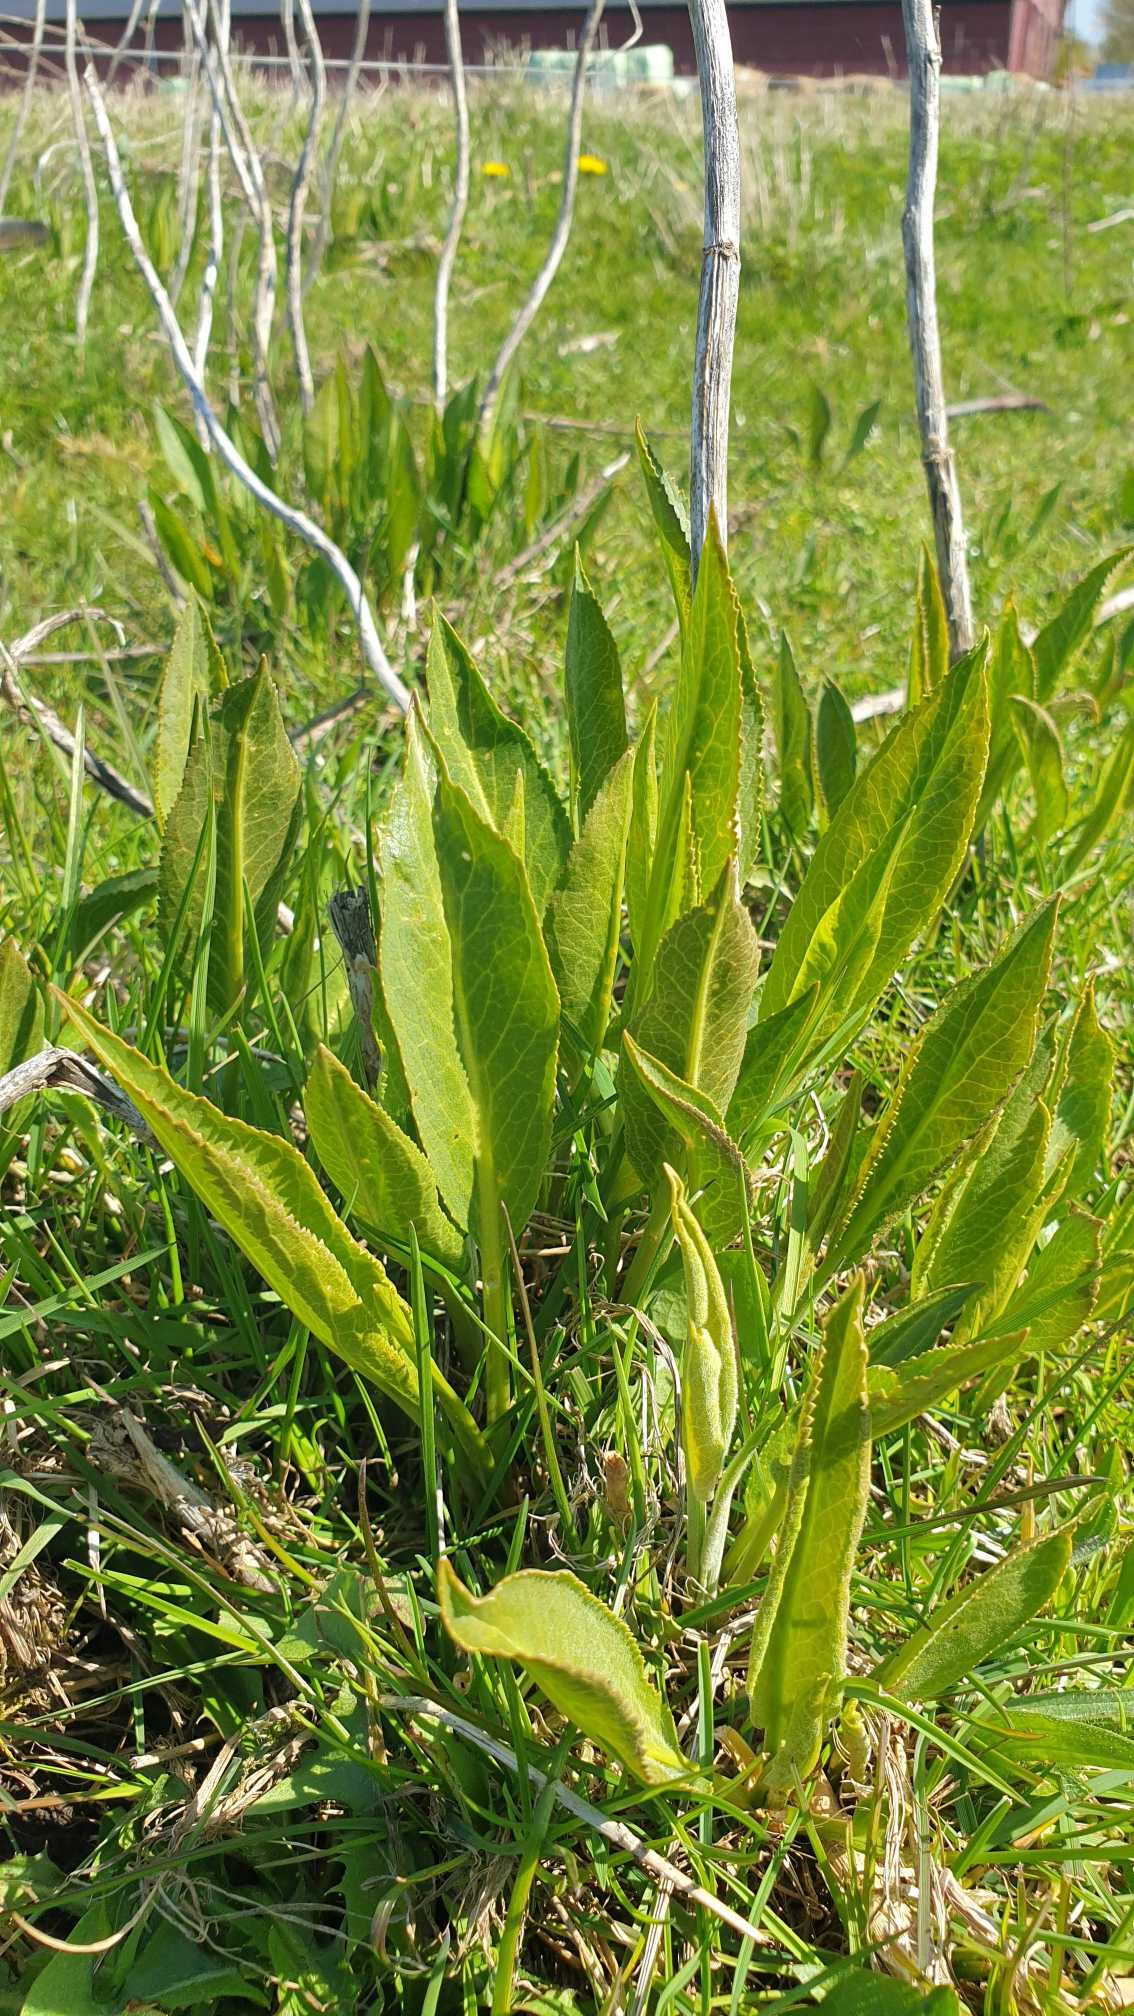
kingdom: Plantae
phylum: Tracheophyta
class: Magnoliopsida
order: Brassicales
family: Brassicaceae
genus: Lepidium
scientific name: Lepidium latifolium
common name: Strand-karse
